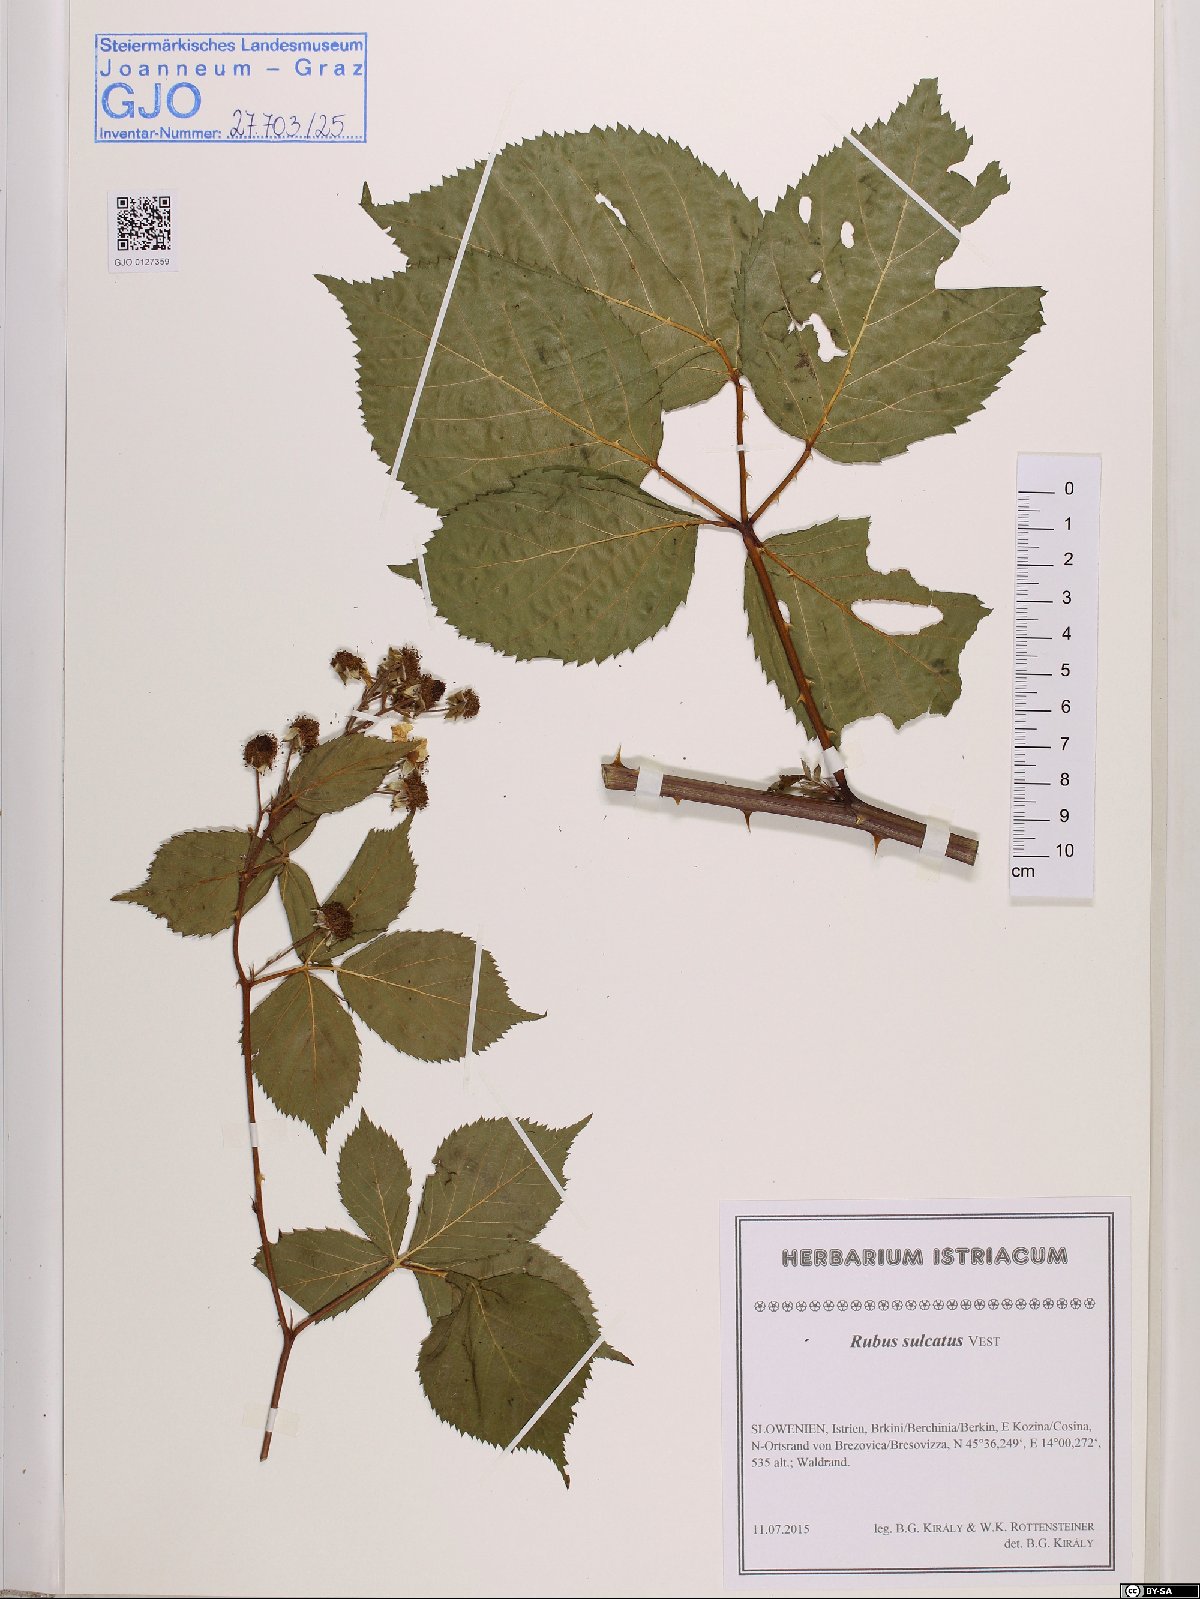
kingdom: Plantae
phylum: Tracheophyta
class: Magnoliopsida
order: Rosales
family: Rosaceae
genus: Rubus
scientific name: Rubus sulcatus
